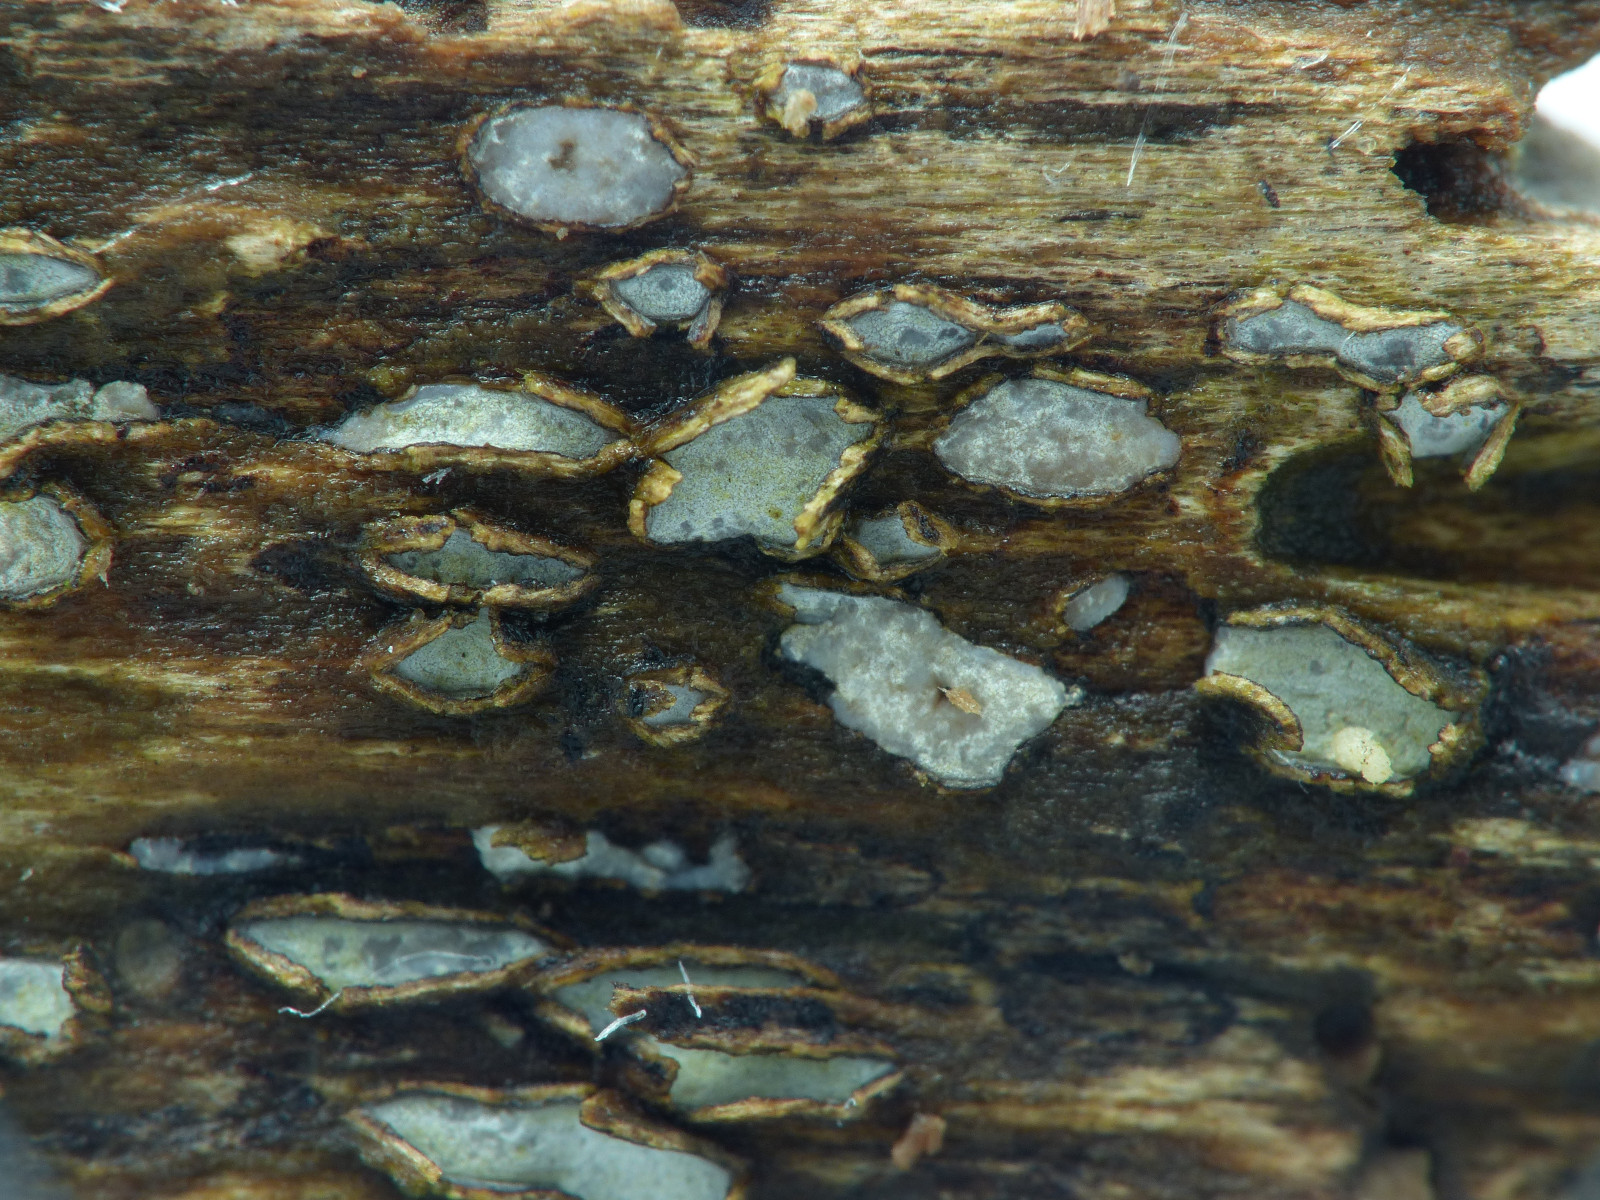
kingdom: Fungi
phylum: Ascomycota
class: Leotiomycetes
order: Chaetomellales
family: Marthamycetaceae
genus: Propolis
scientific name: Propolis farinosa
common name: almindelig vedsprængerskive
